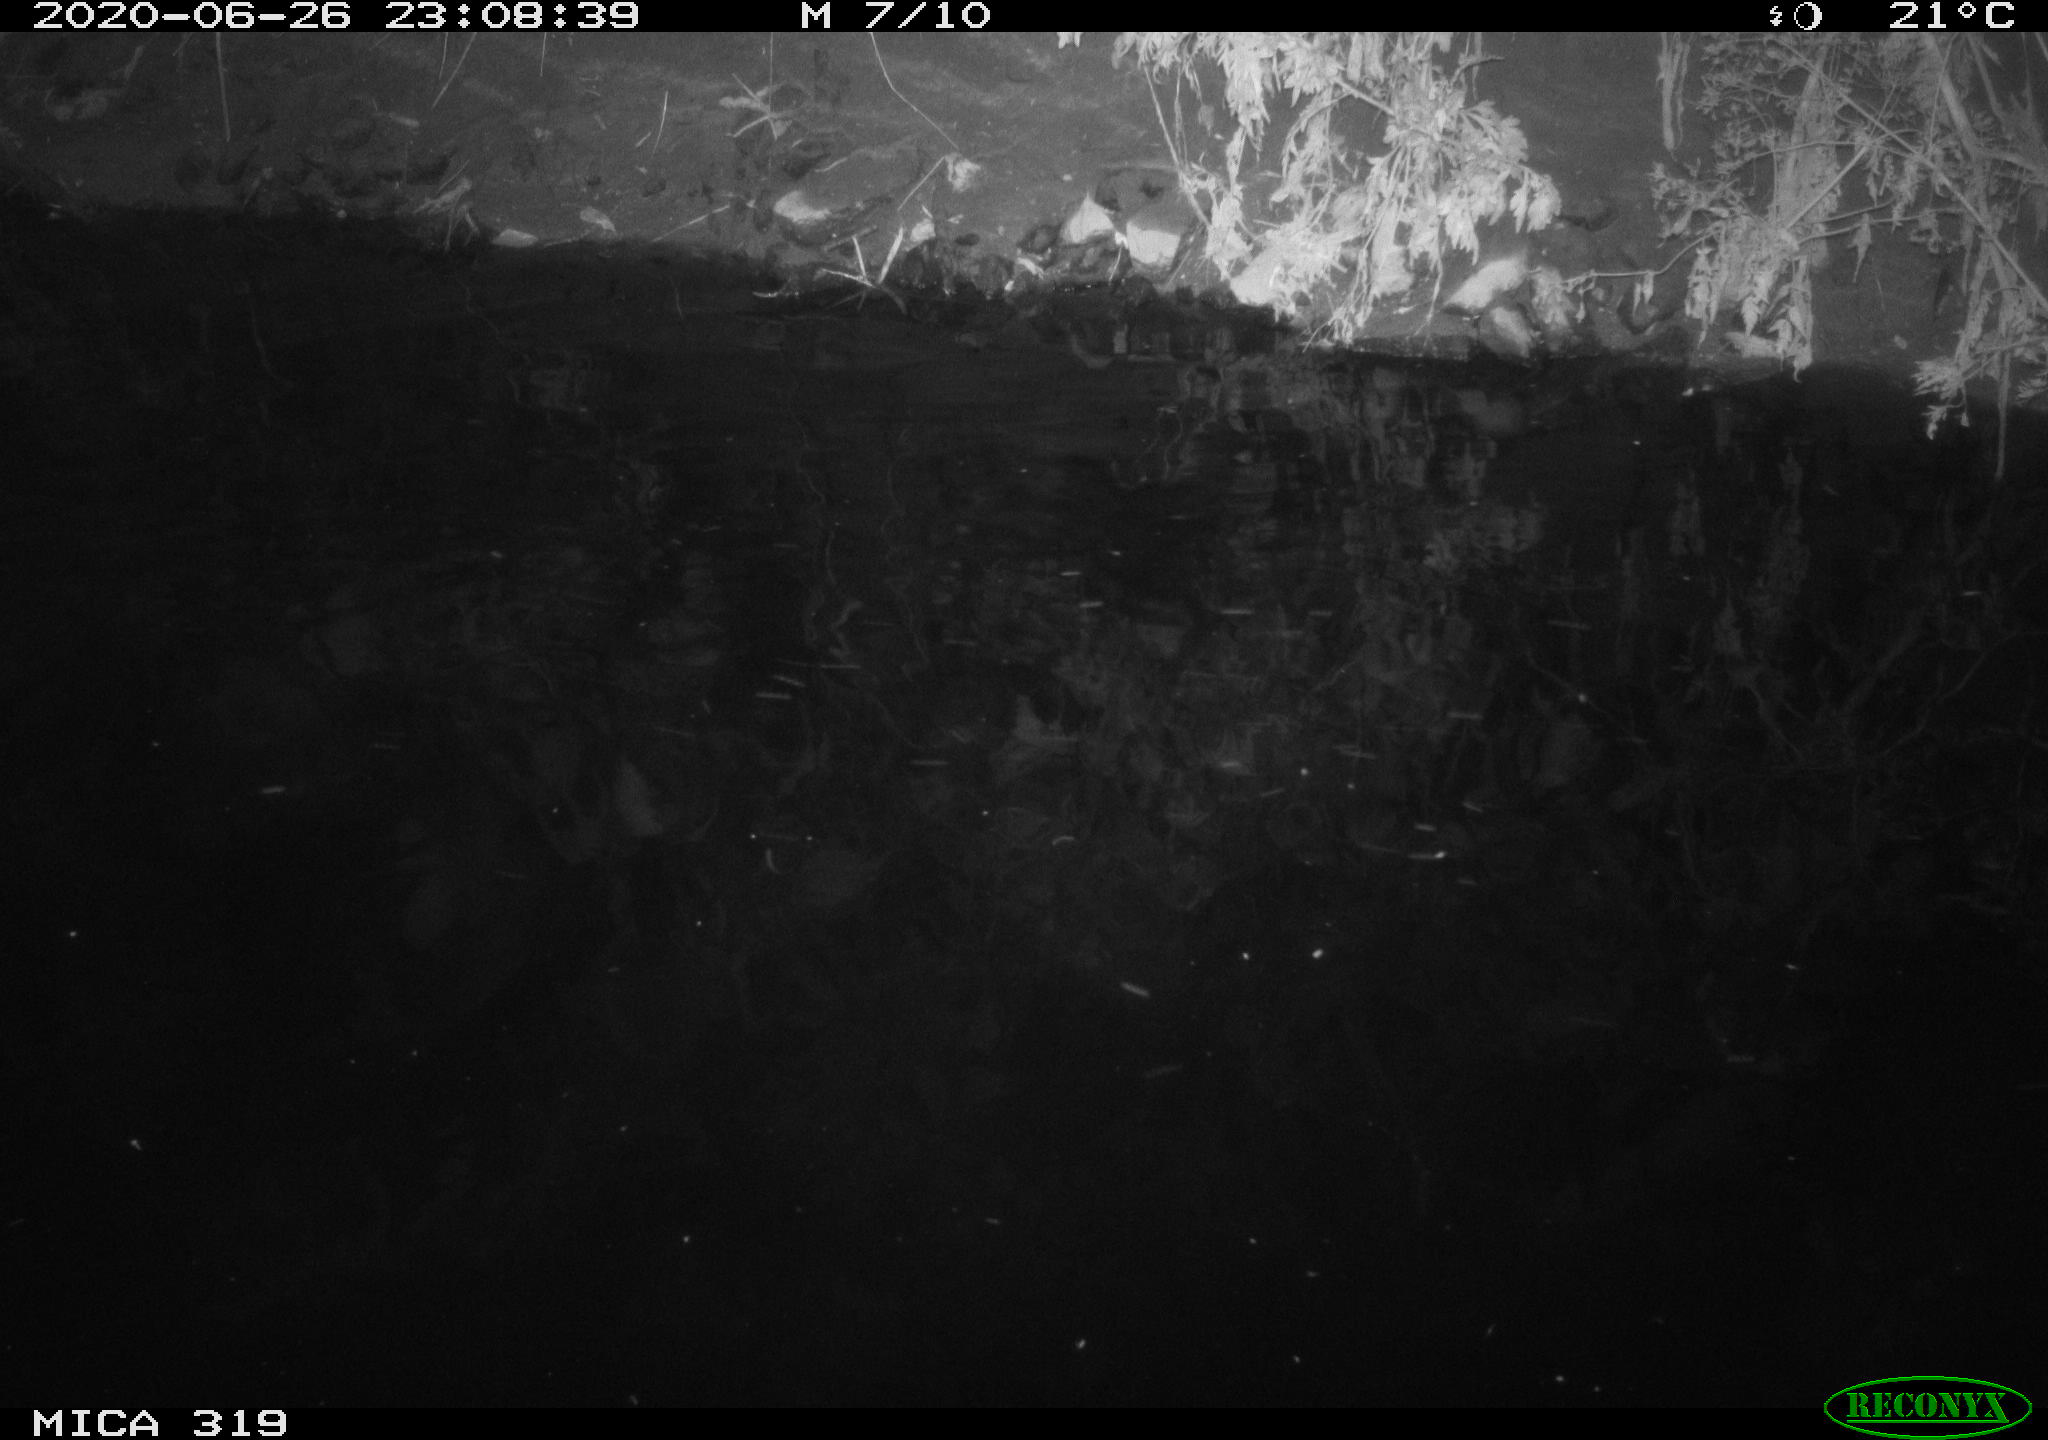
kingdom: Animalia
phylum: Chordata
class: Aves
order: Anseriformes
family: Anatidae
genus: Anas
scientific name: Anas platyrhynchos
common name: Mallard
